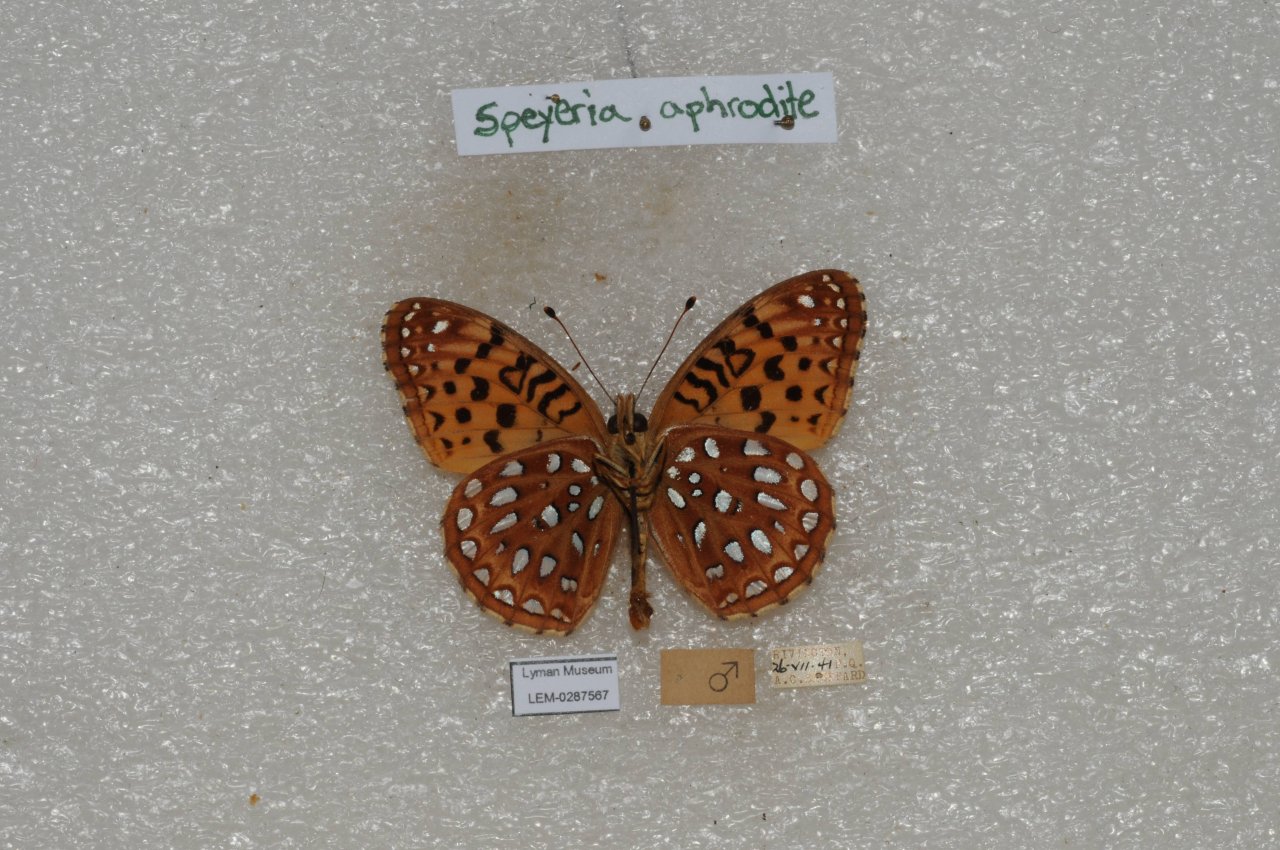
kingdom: Animalia
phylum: Arthropoda
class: Insecta
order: Lepidoptera
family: Nymphalidae
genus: Speyeria
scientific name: Speyeria aphrodite
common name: Aphrodite Fritillary
